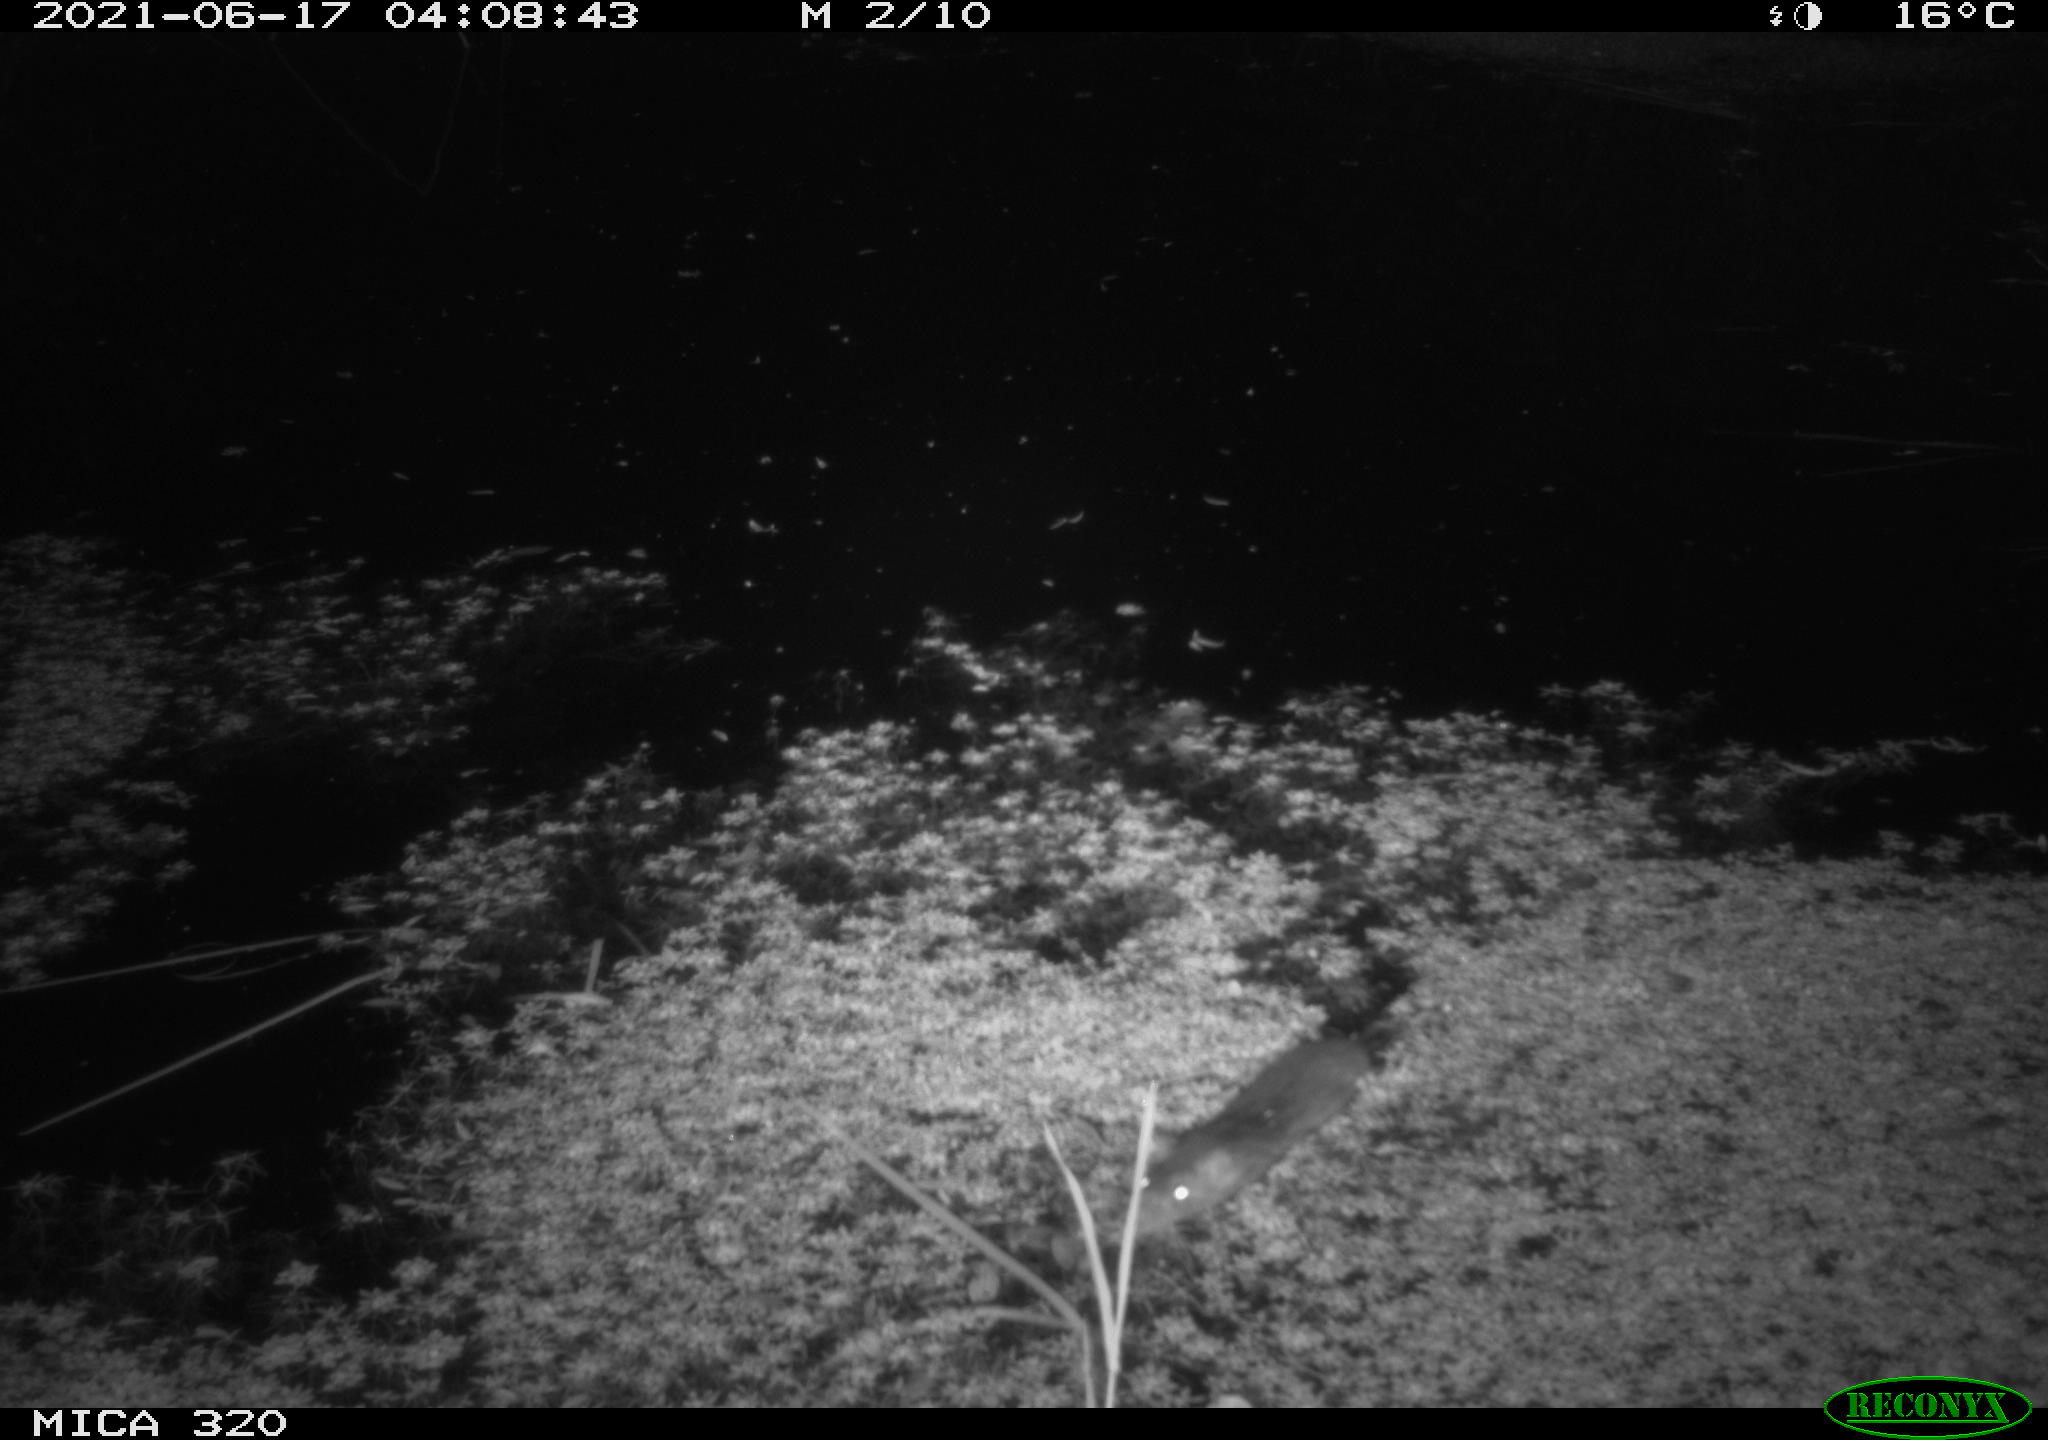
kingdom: Animalia
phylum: Chordata
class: Mammalia
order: Rodentia
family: Muridae
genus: Rattus
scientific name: Rattus norvegicus
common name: Brown rat
